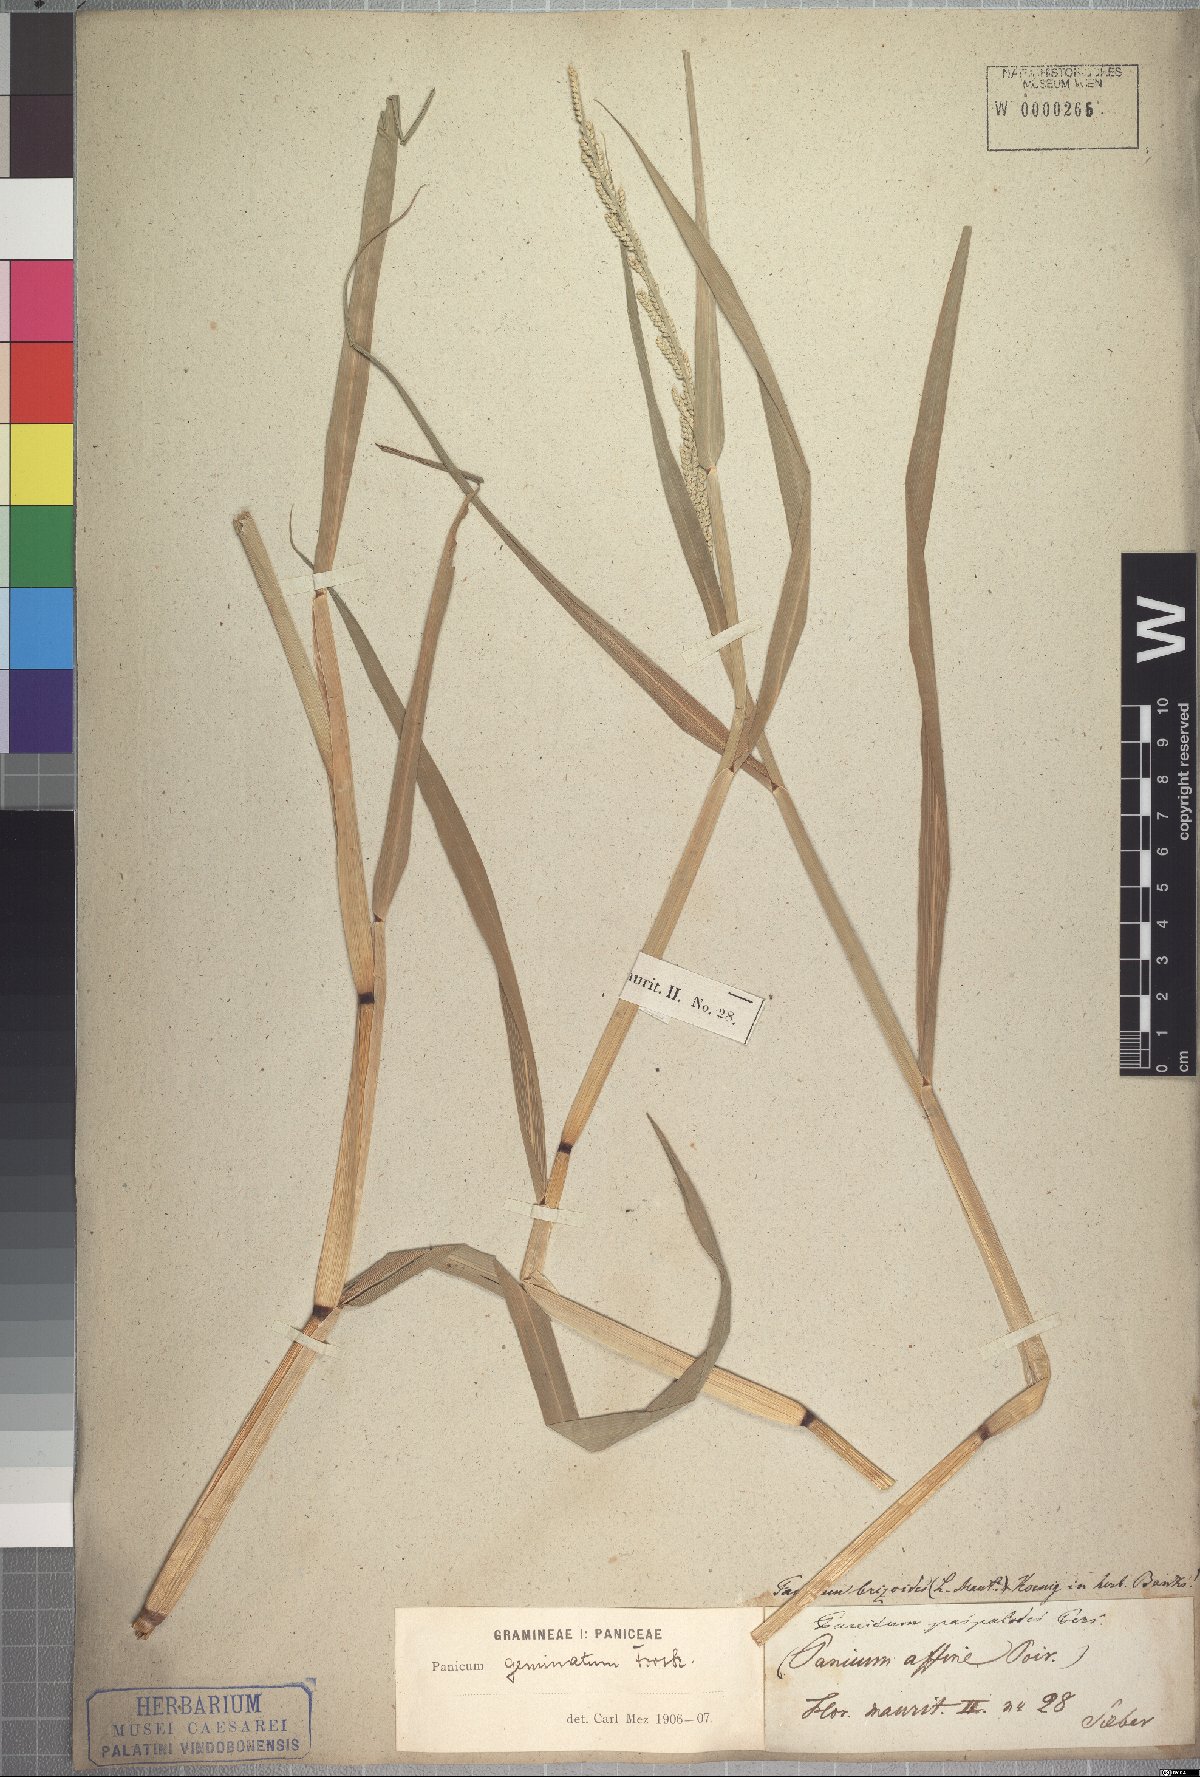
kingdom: Plantae
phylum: Tracheophyta
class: Liliopsida
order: Poales
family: Poaceae
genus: Setaria
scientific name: Setaria geminata
